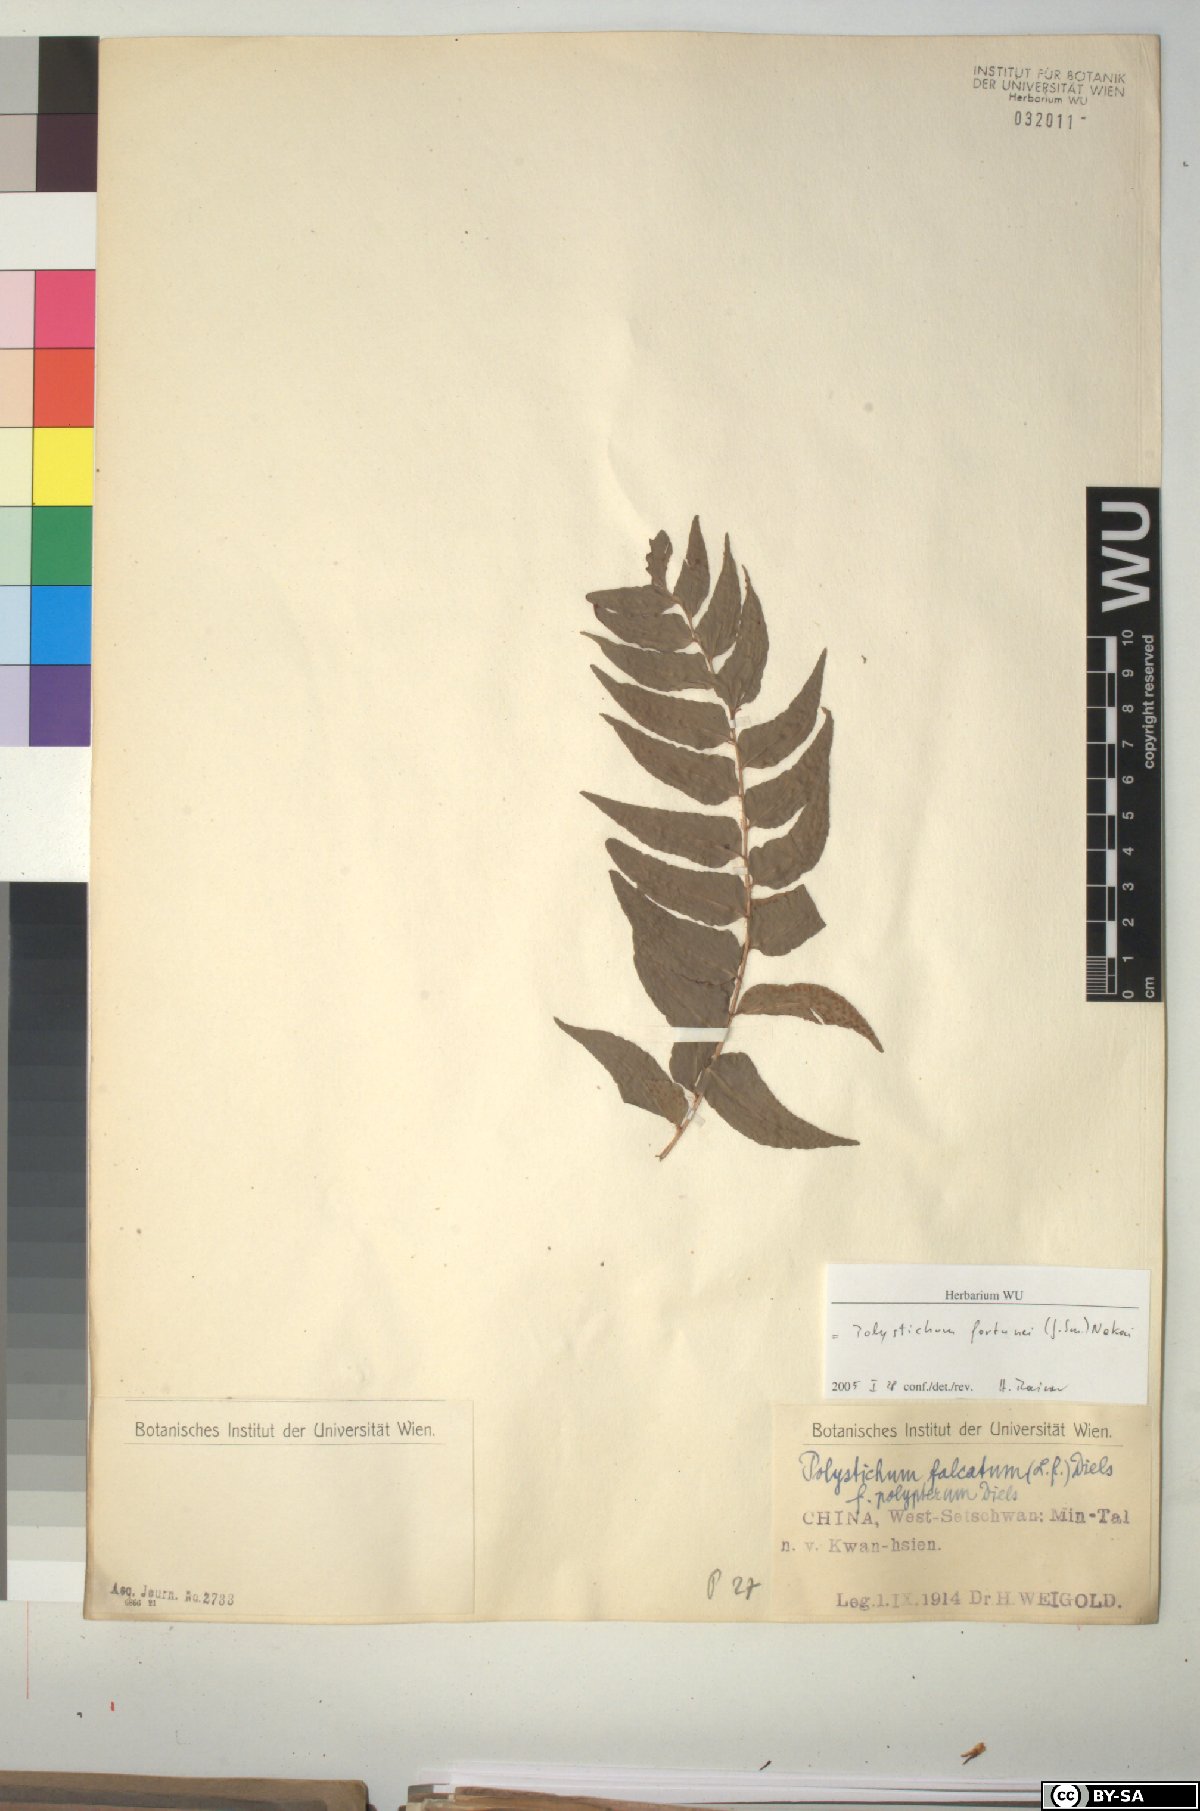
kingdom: Plantae
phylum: Tracheophyta
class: Polypodiopsida
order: Polypodiales
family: Dryopteridaceae
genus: Cyrtomium
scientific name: Cyrtomium fortunei
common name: Asian netvein hollyfern
